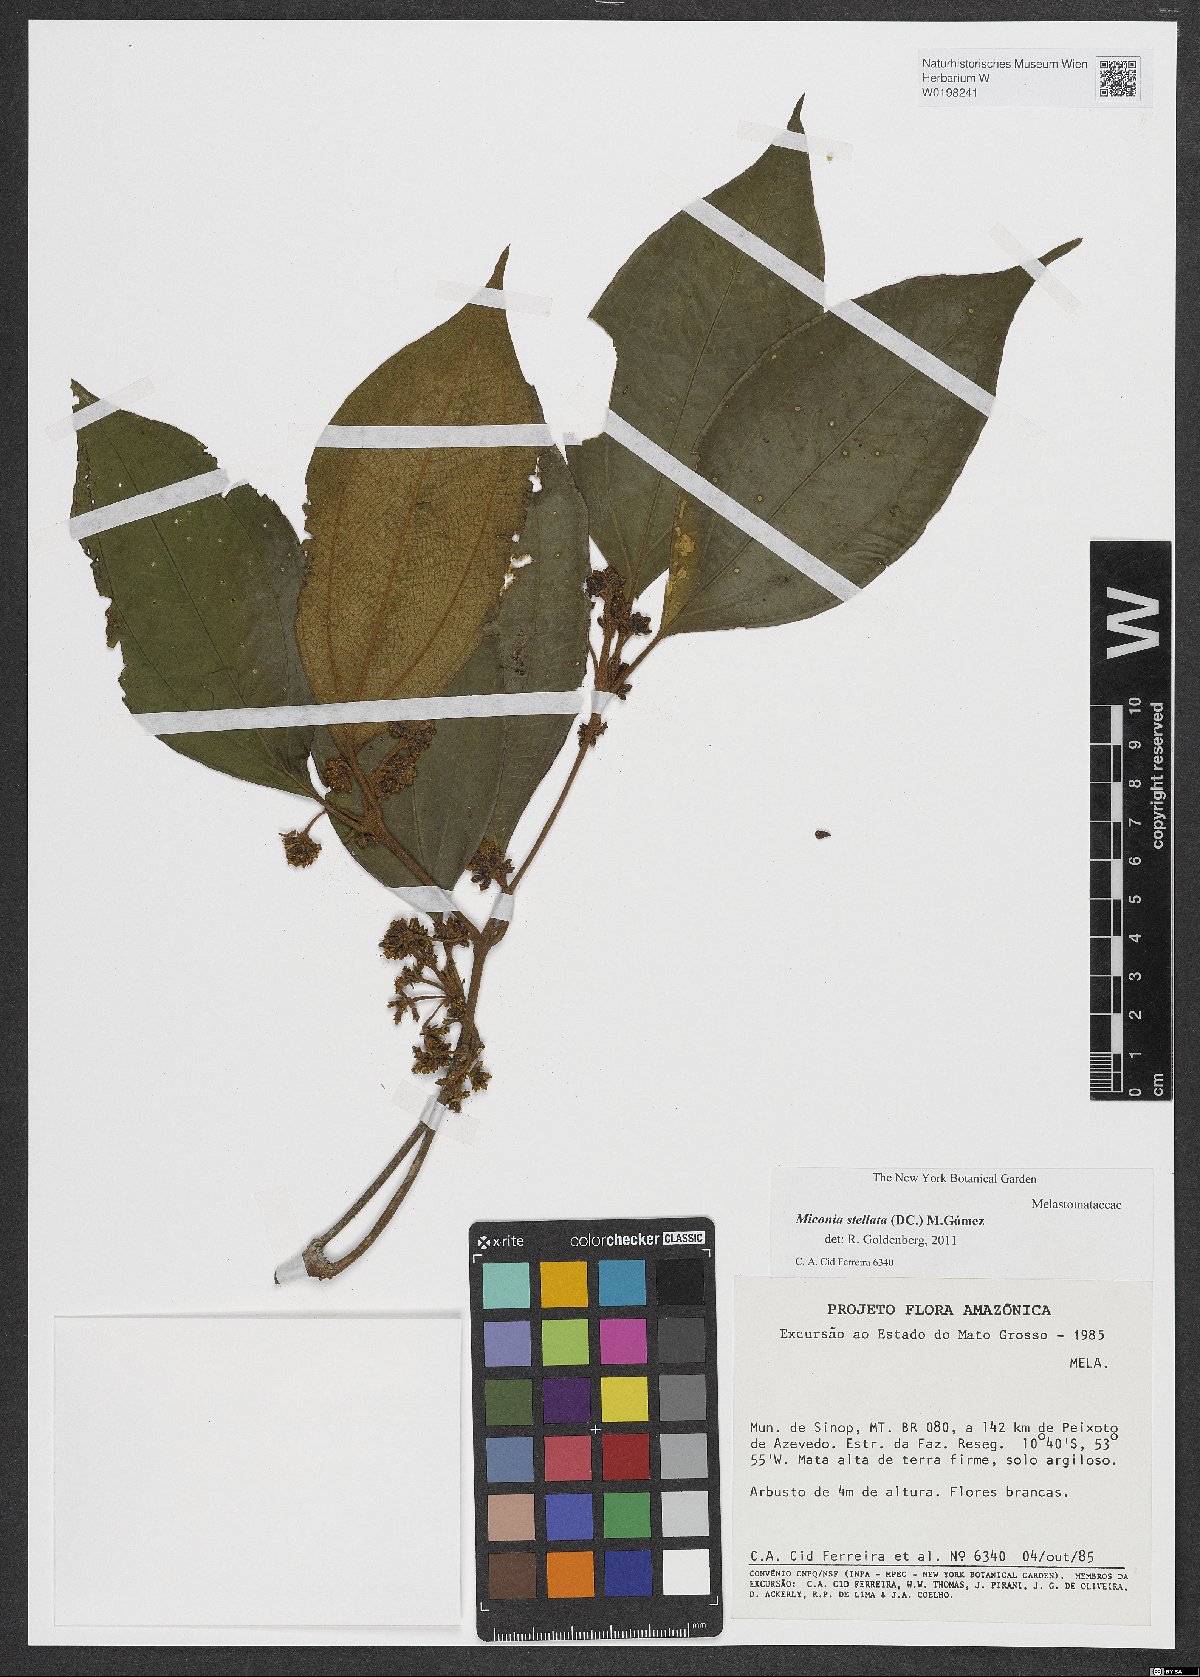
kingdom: Plantae
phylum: Tracheophyta
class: Magnoliopsida
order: Myrtales
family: Melastomataceae
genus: Miconia
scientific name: Miconia stellulata
